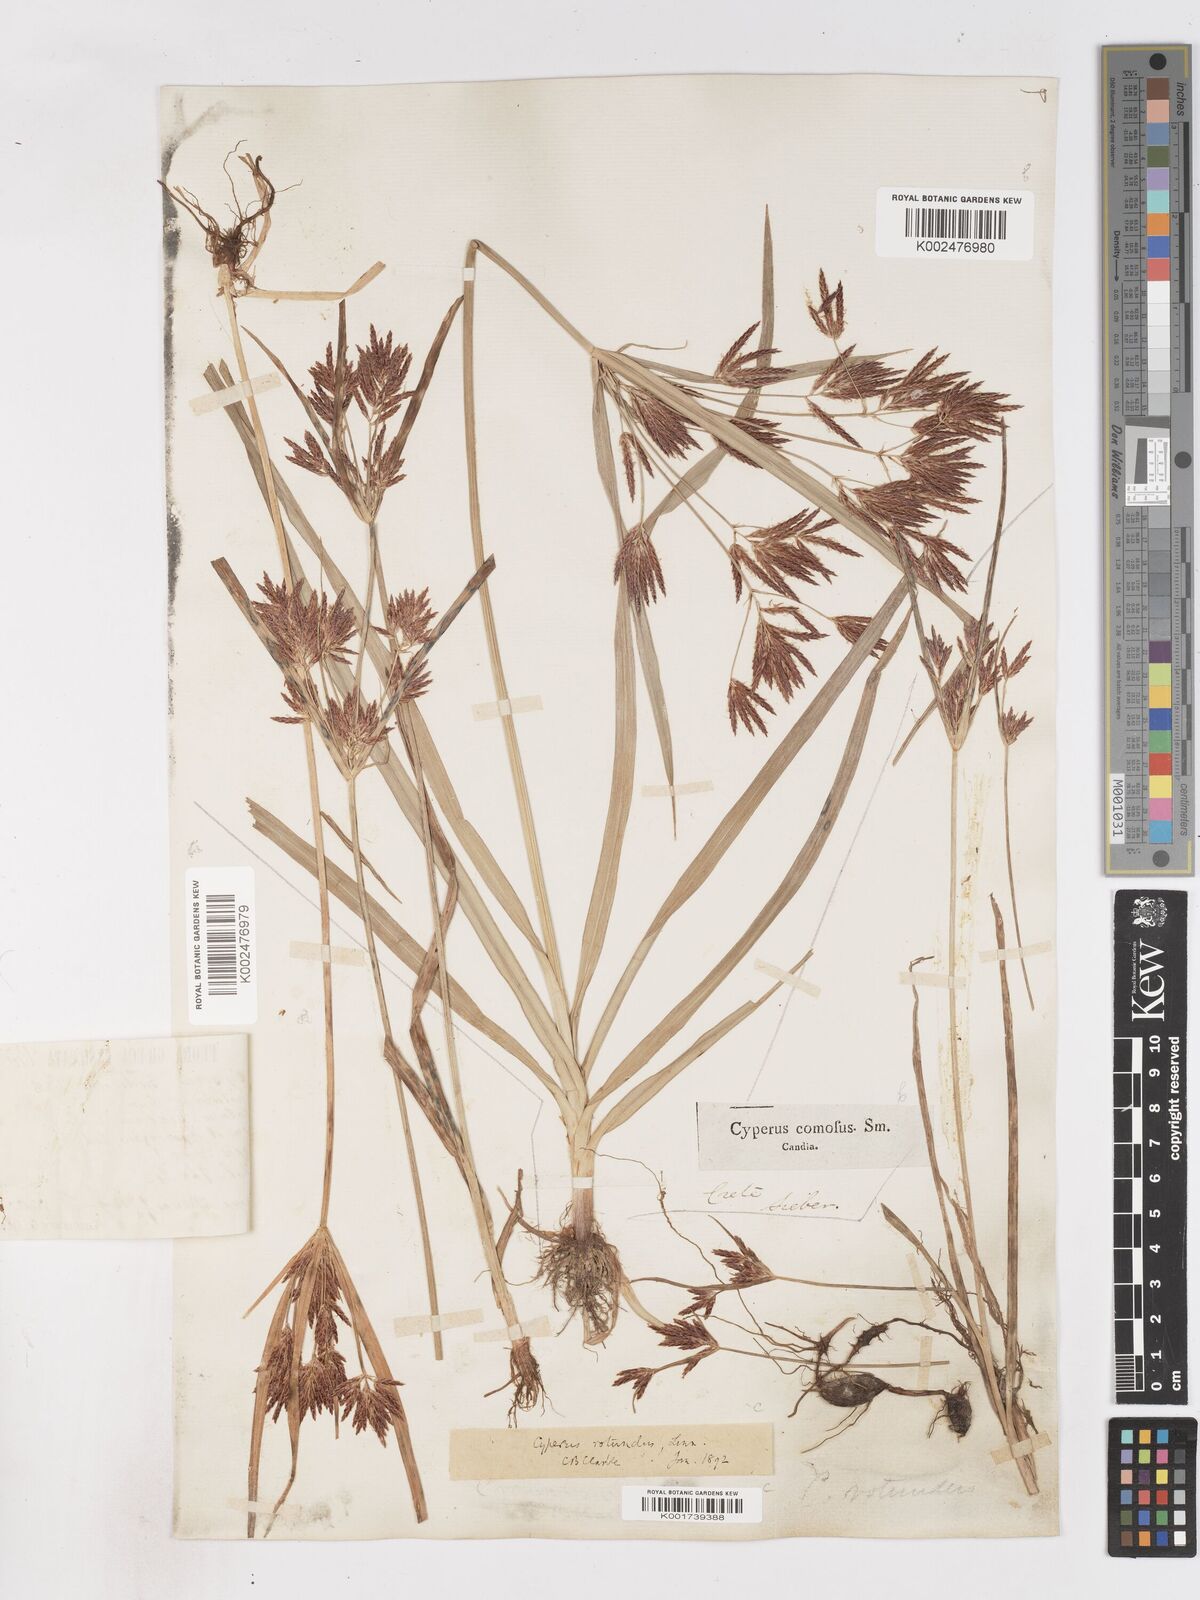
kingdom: Plantae
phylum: Tracheophyta
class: Liliopsida
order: Poales
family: Cyperaceae
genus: Cyperus
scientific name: Cyperus rotundus
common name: Nutgrass
